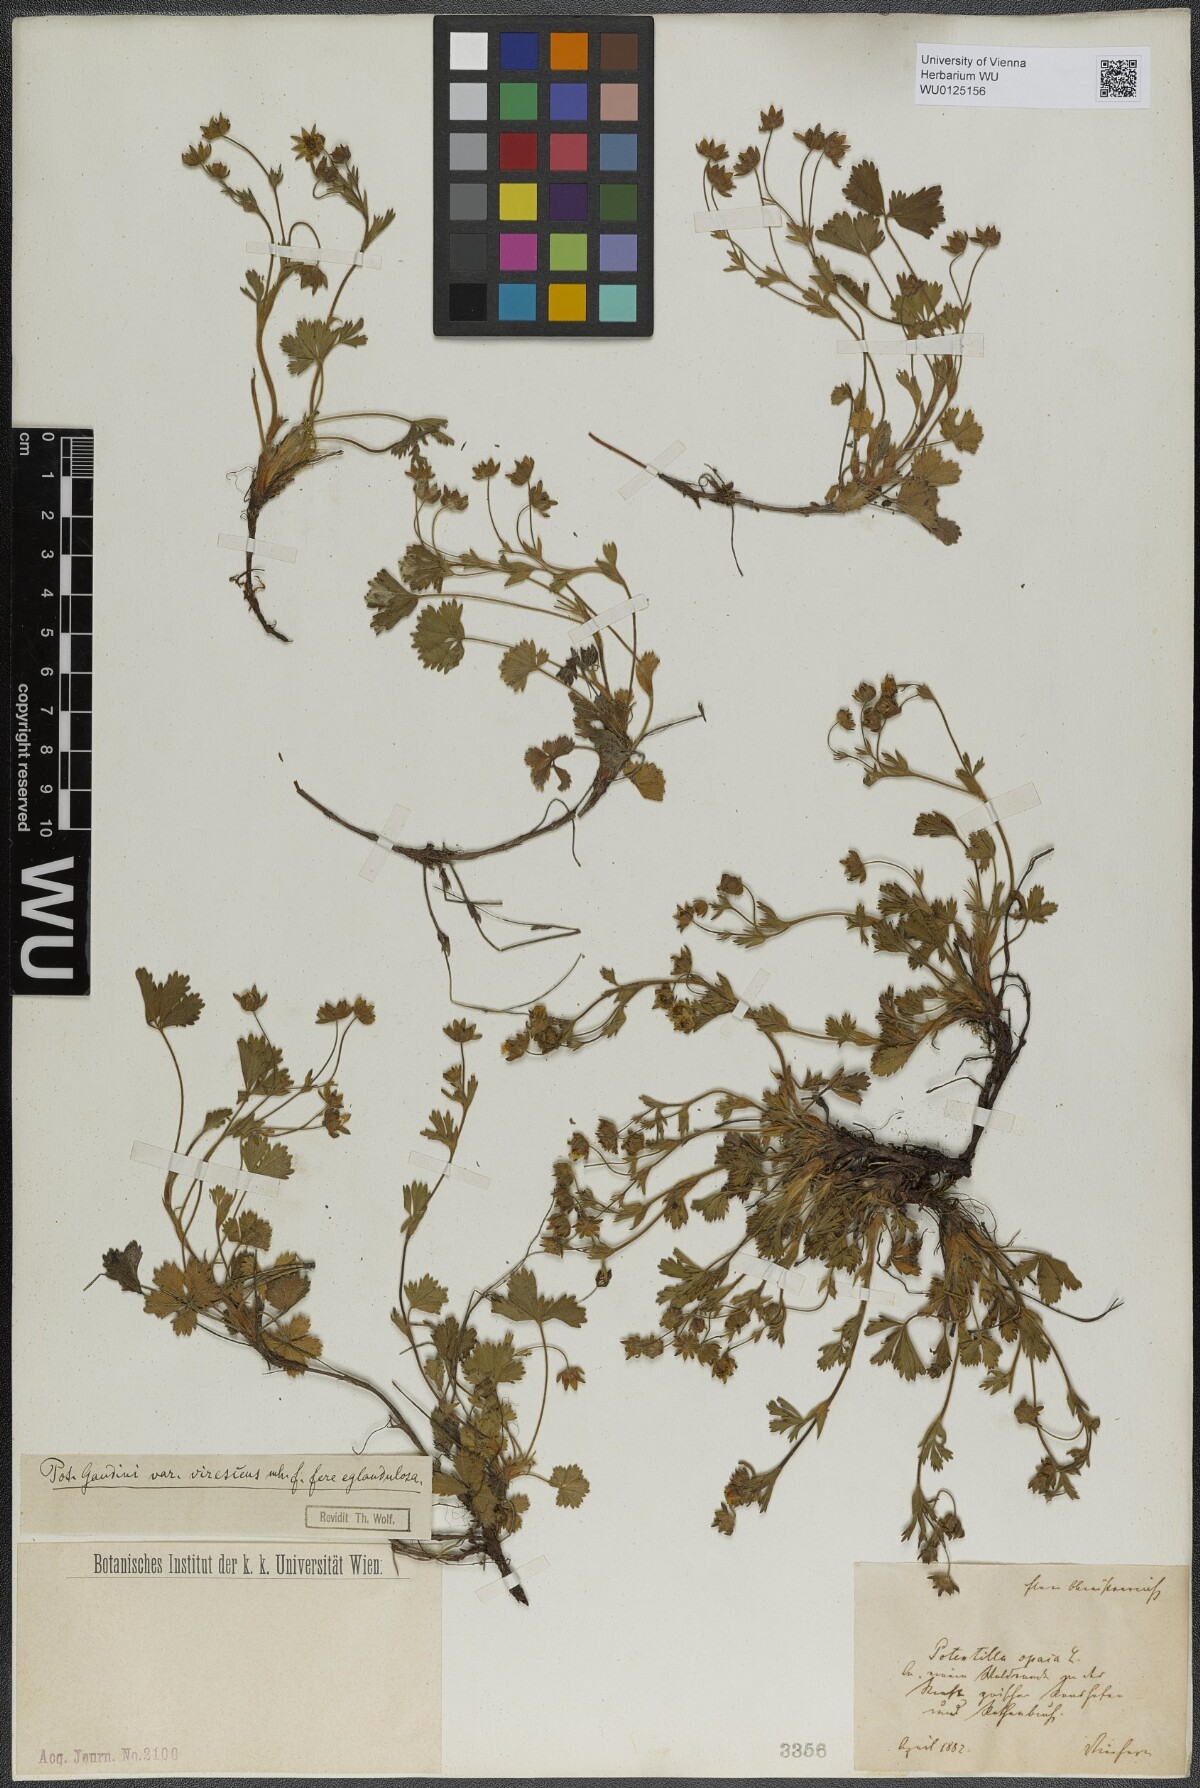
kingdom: Plantae
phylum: Tracheophyta
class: Magnoliopsida
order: Rosales
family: Rosaceae
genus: Potentilla
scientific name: Potentilla pusilla
